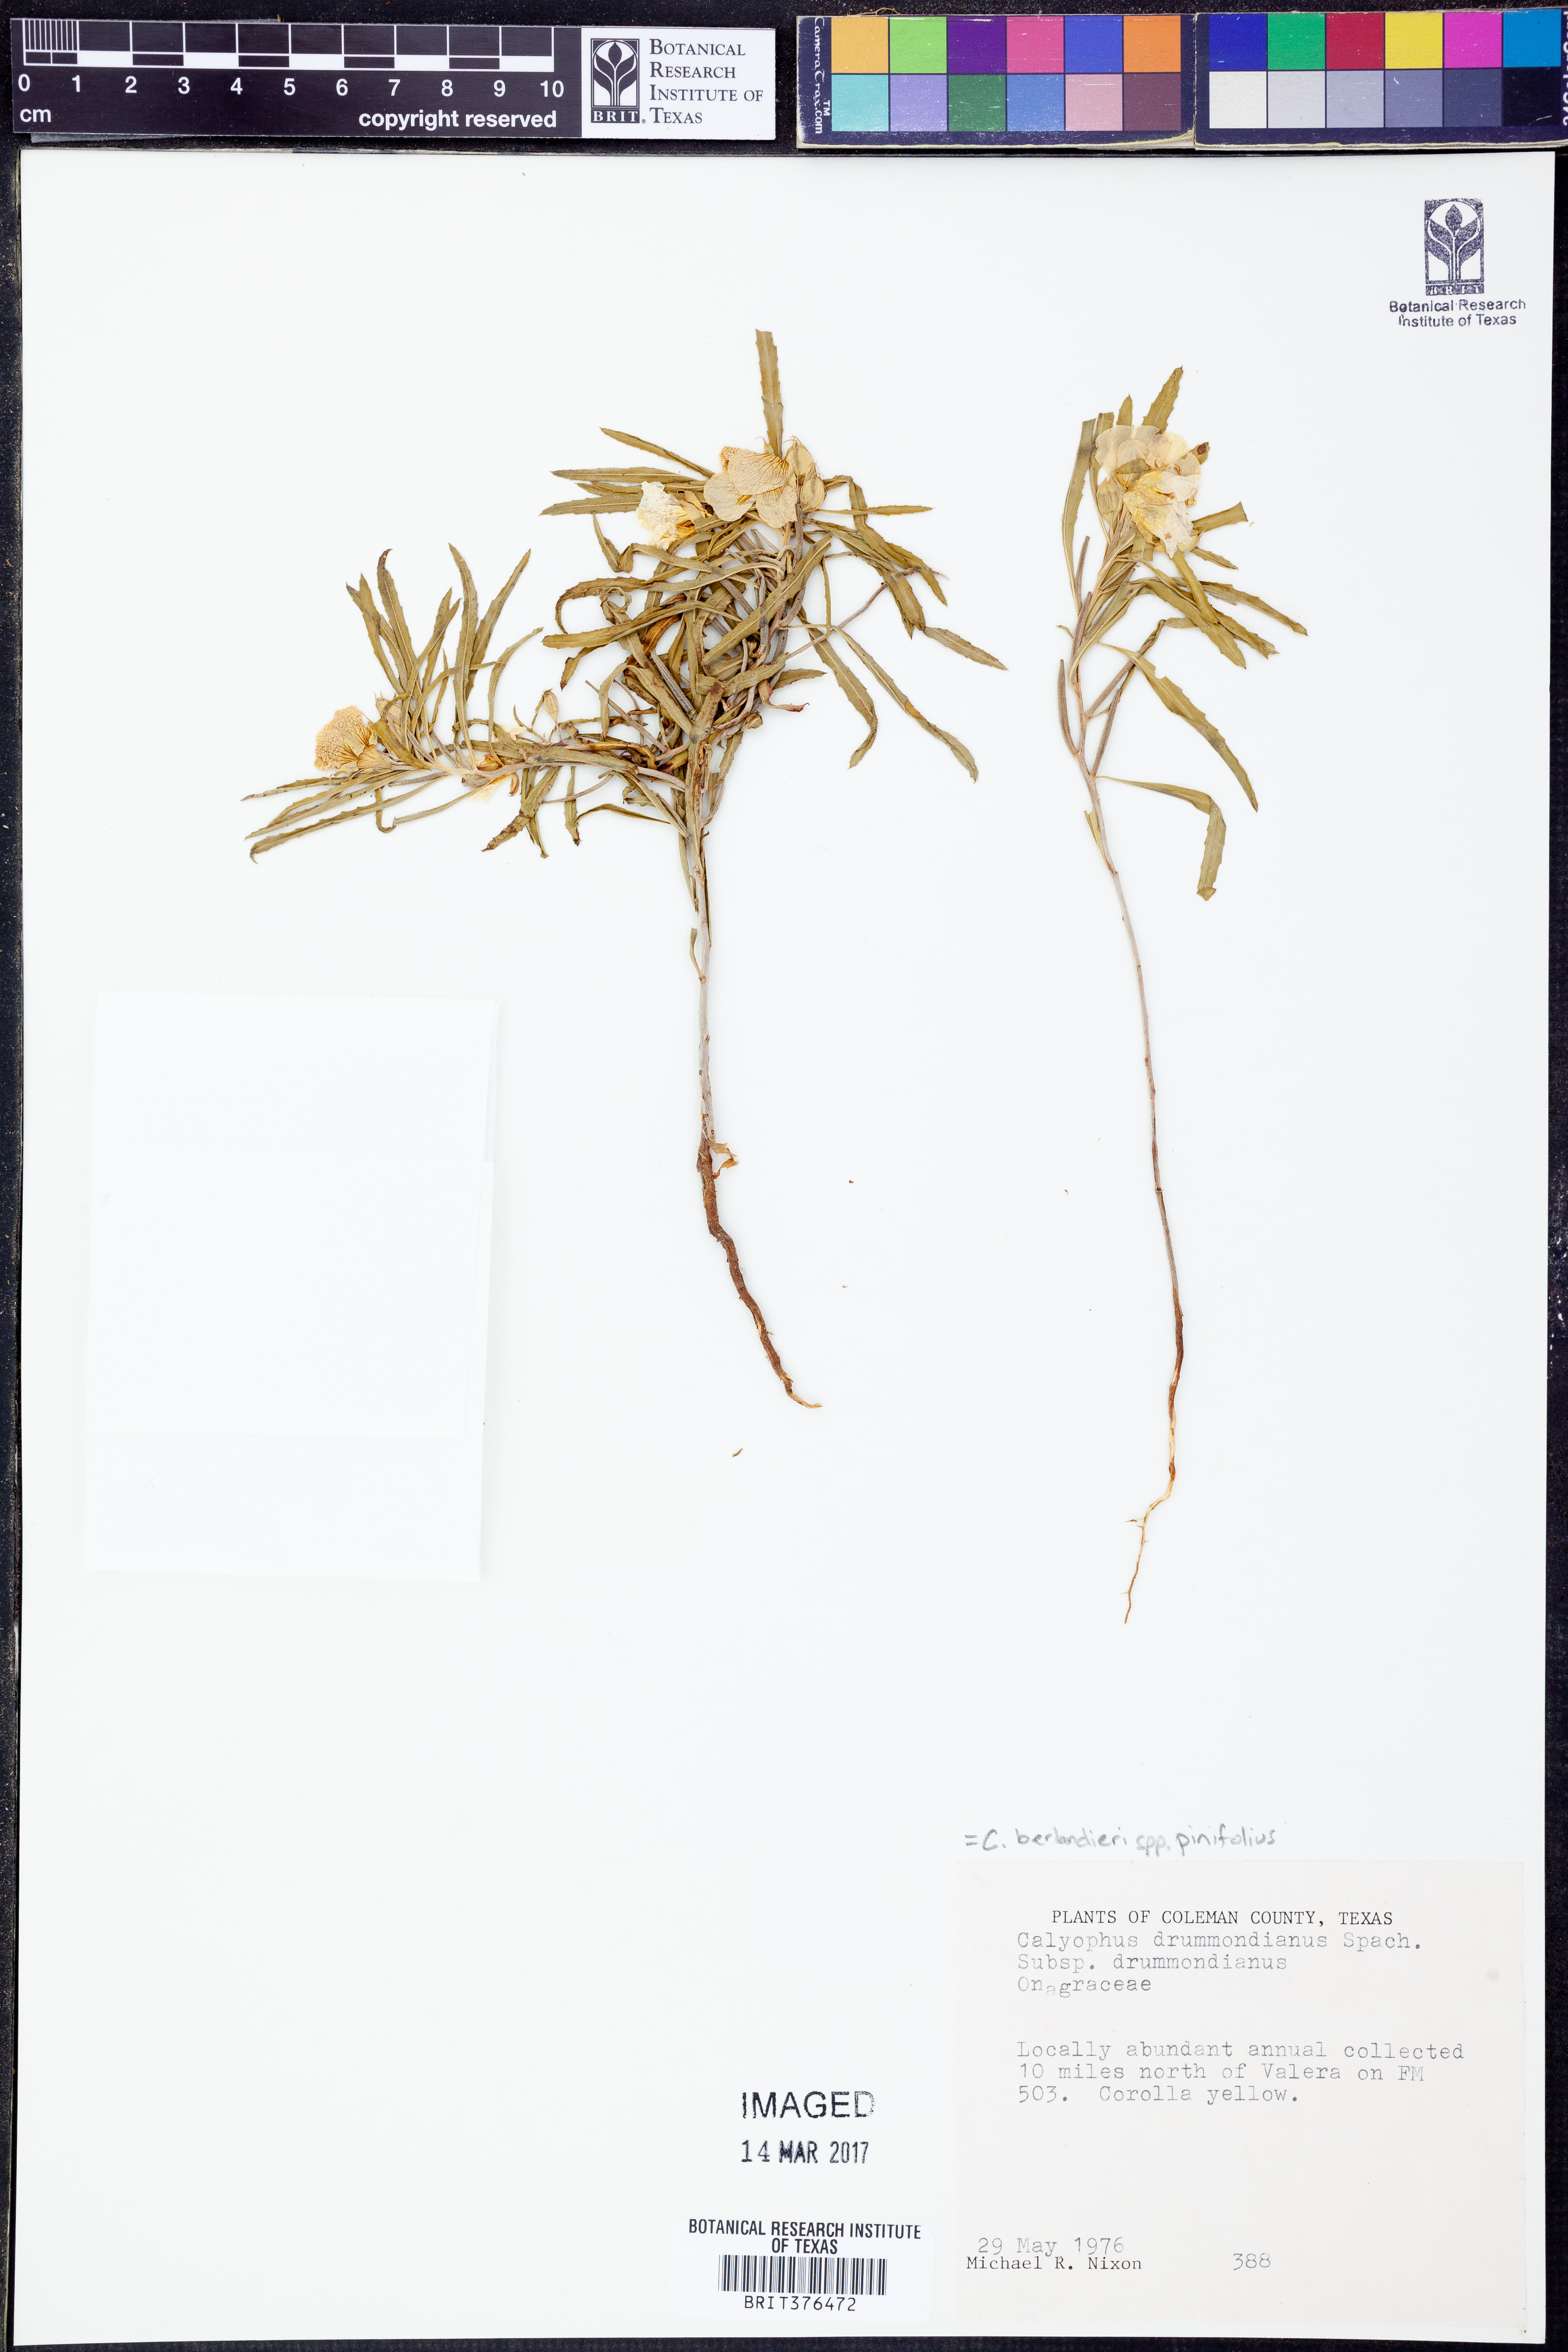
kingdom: Plantae
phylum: Tracheophyta
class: Magnoliopsida
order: Myrtales
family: Onagraceae
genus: Oenothera
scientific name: Oenothera capillifolia
